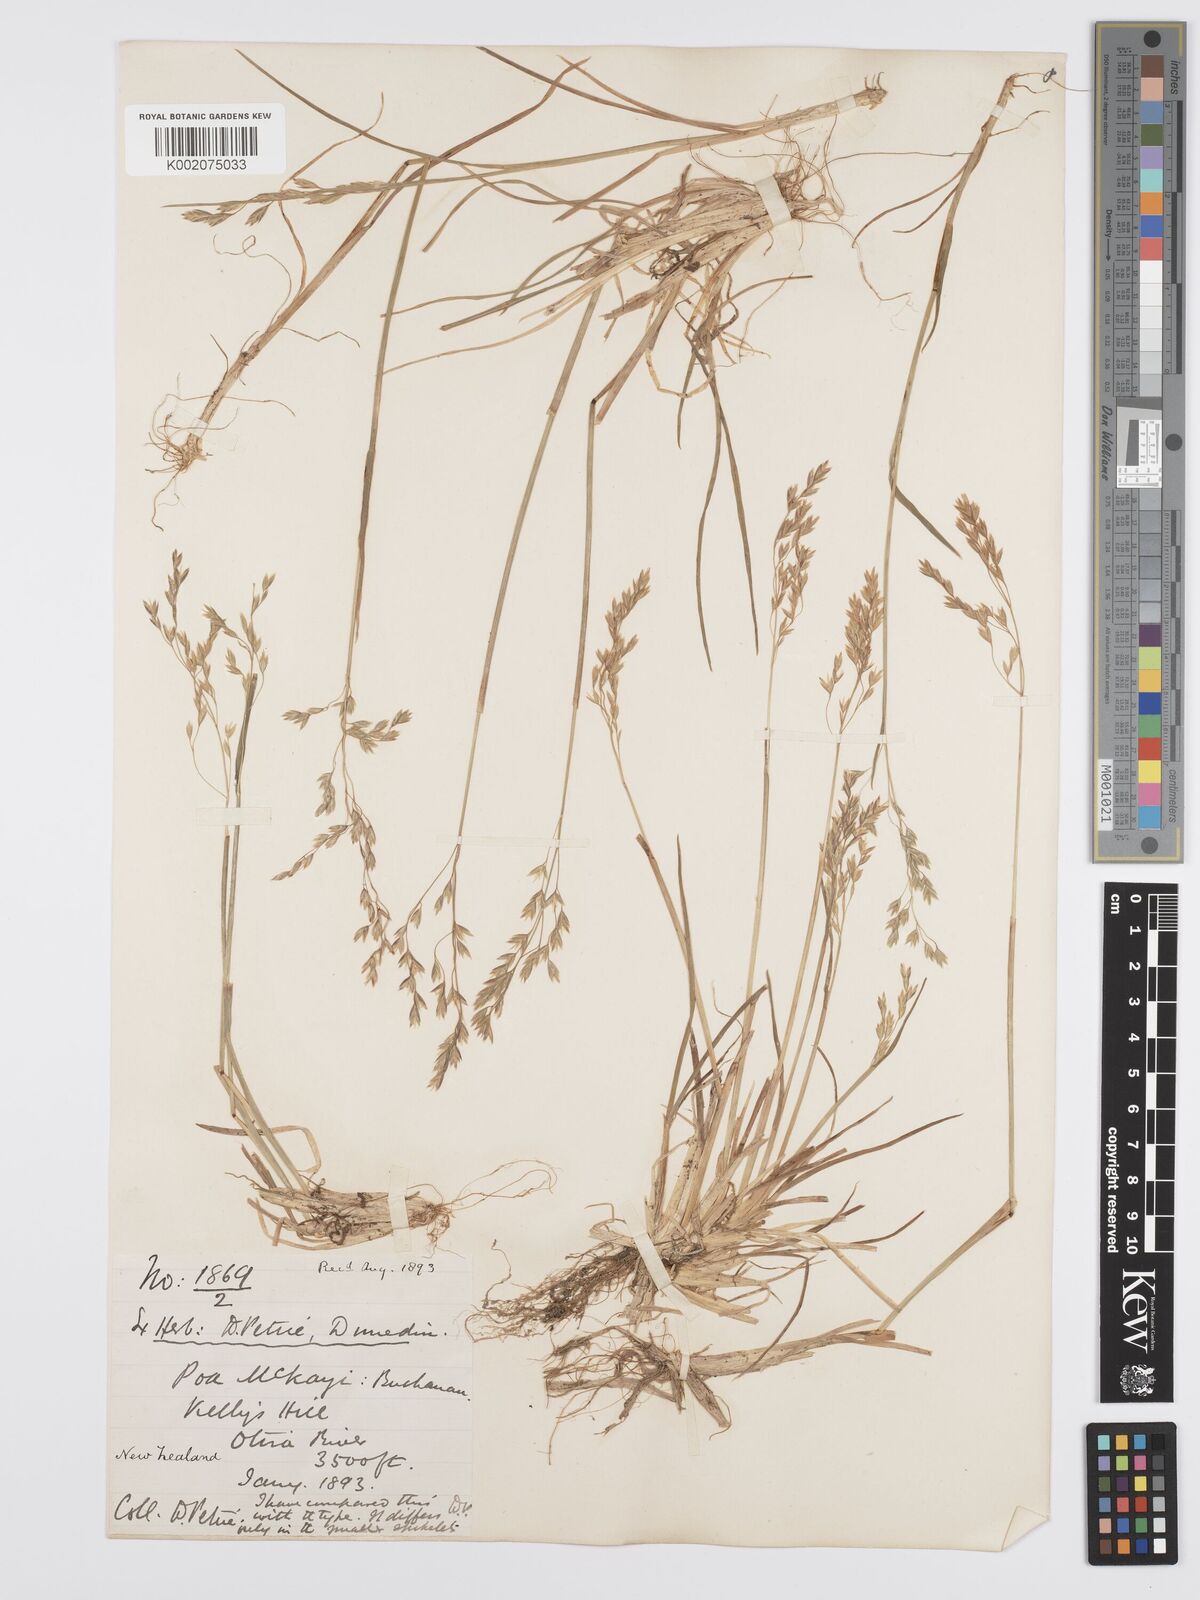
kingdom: Plantae
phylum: Tracheophyta
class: Liliopsida
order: Poales
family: Poaceae
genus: Poa
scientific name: Poa kirkii
